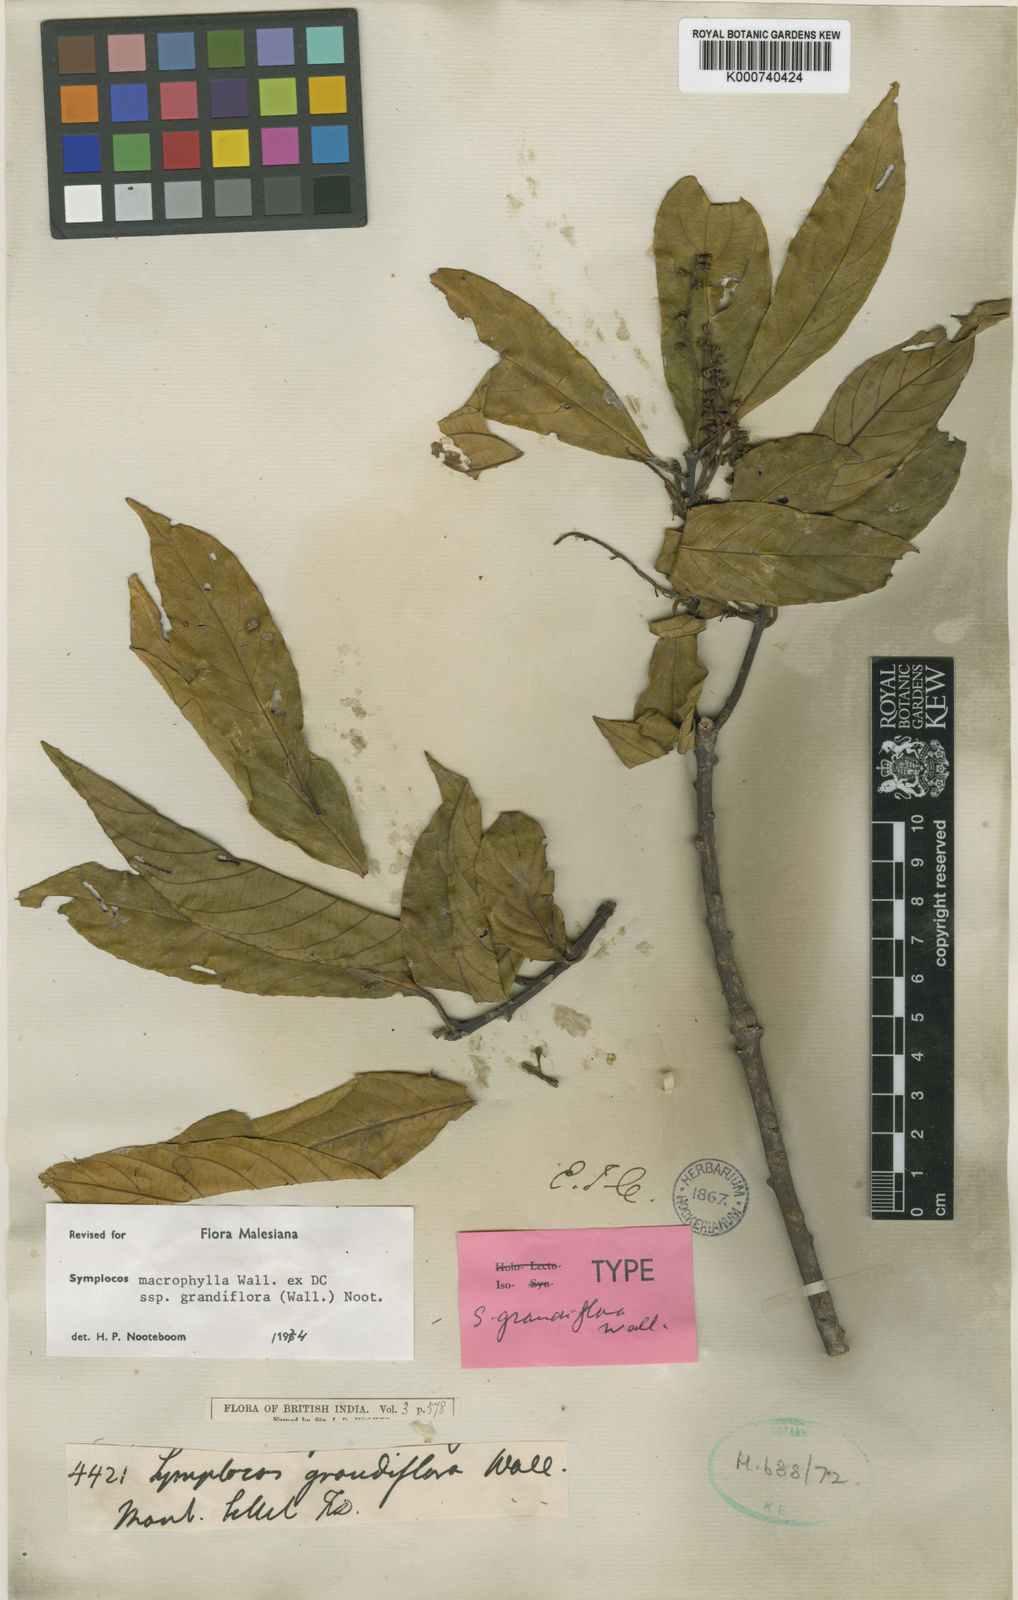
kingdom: Plantae
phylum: Tracheophyta
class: Magnoliopsida
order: Ericales
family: Symplocaceae
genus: Symplocos
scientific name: Symplocos macrophylla
